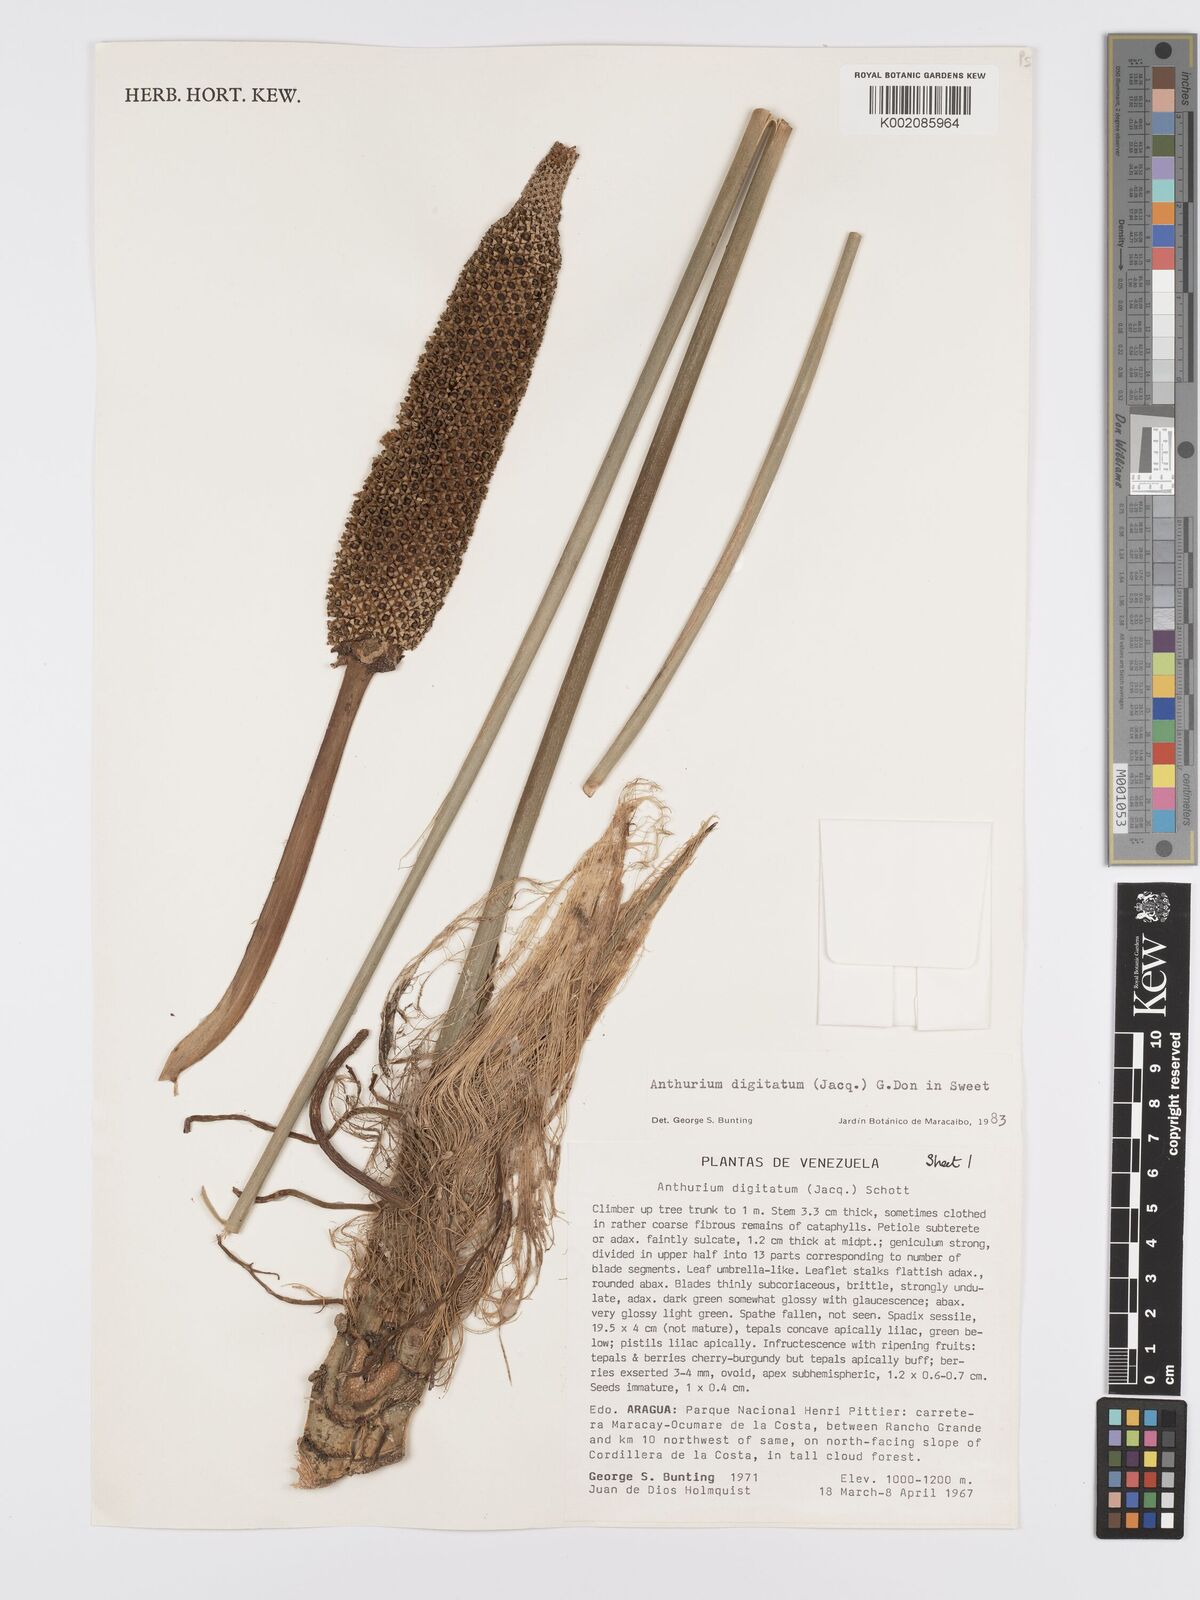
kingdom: Plantae
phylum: Tracheophyta
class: Liliopsida
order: Alismatales
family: Araceae
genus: Anthurium
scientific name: Anthurium digitatum
